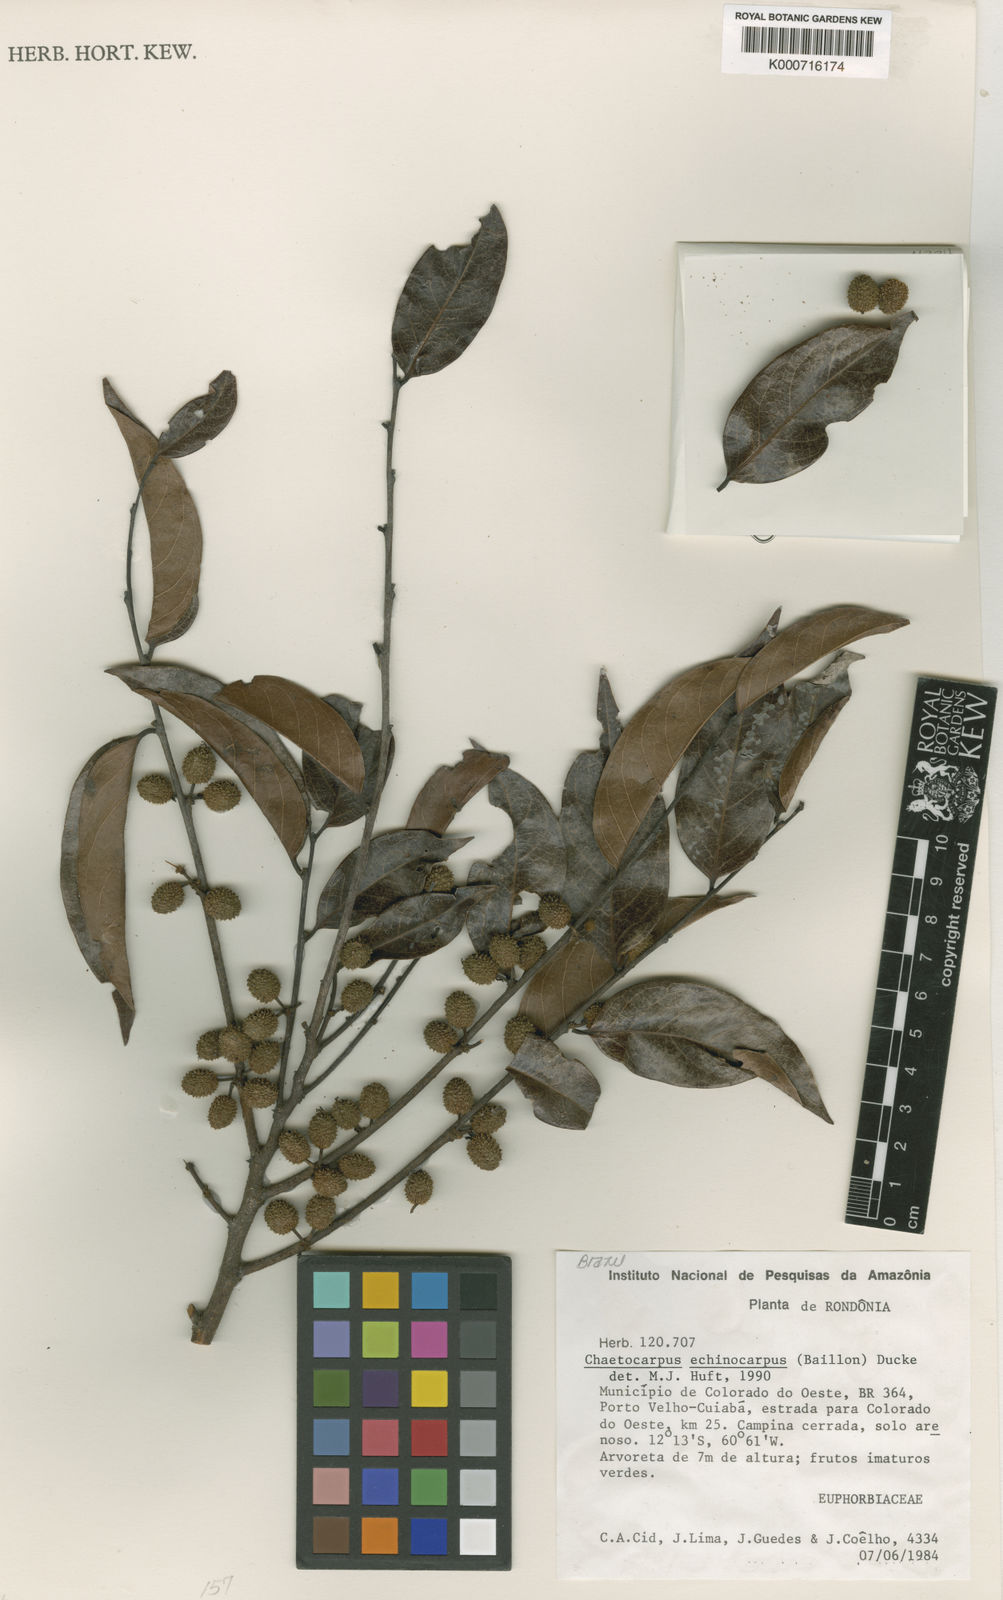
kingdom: Plantae
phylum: Tracheophyta
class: Magnoliopsida
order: Malpighiales
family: Peraceae
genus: Chaetocarpus
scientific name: Chaetocarpus echinocarpus
